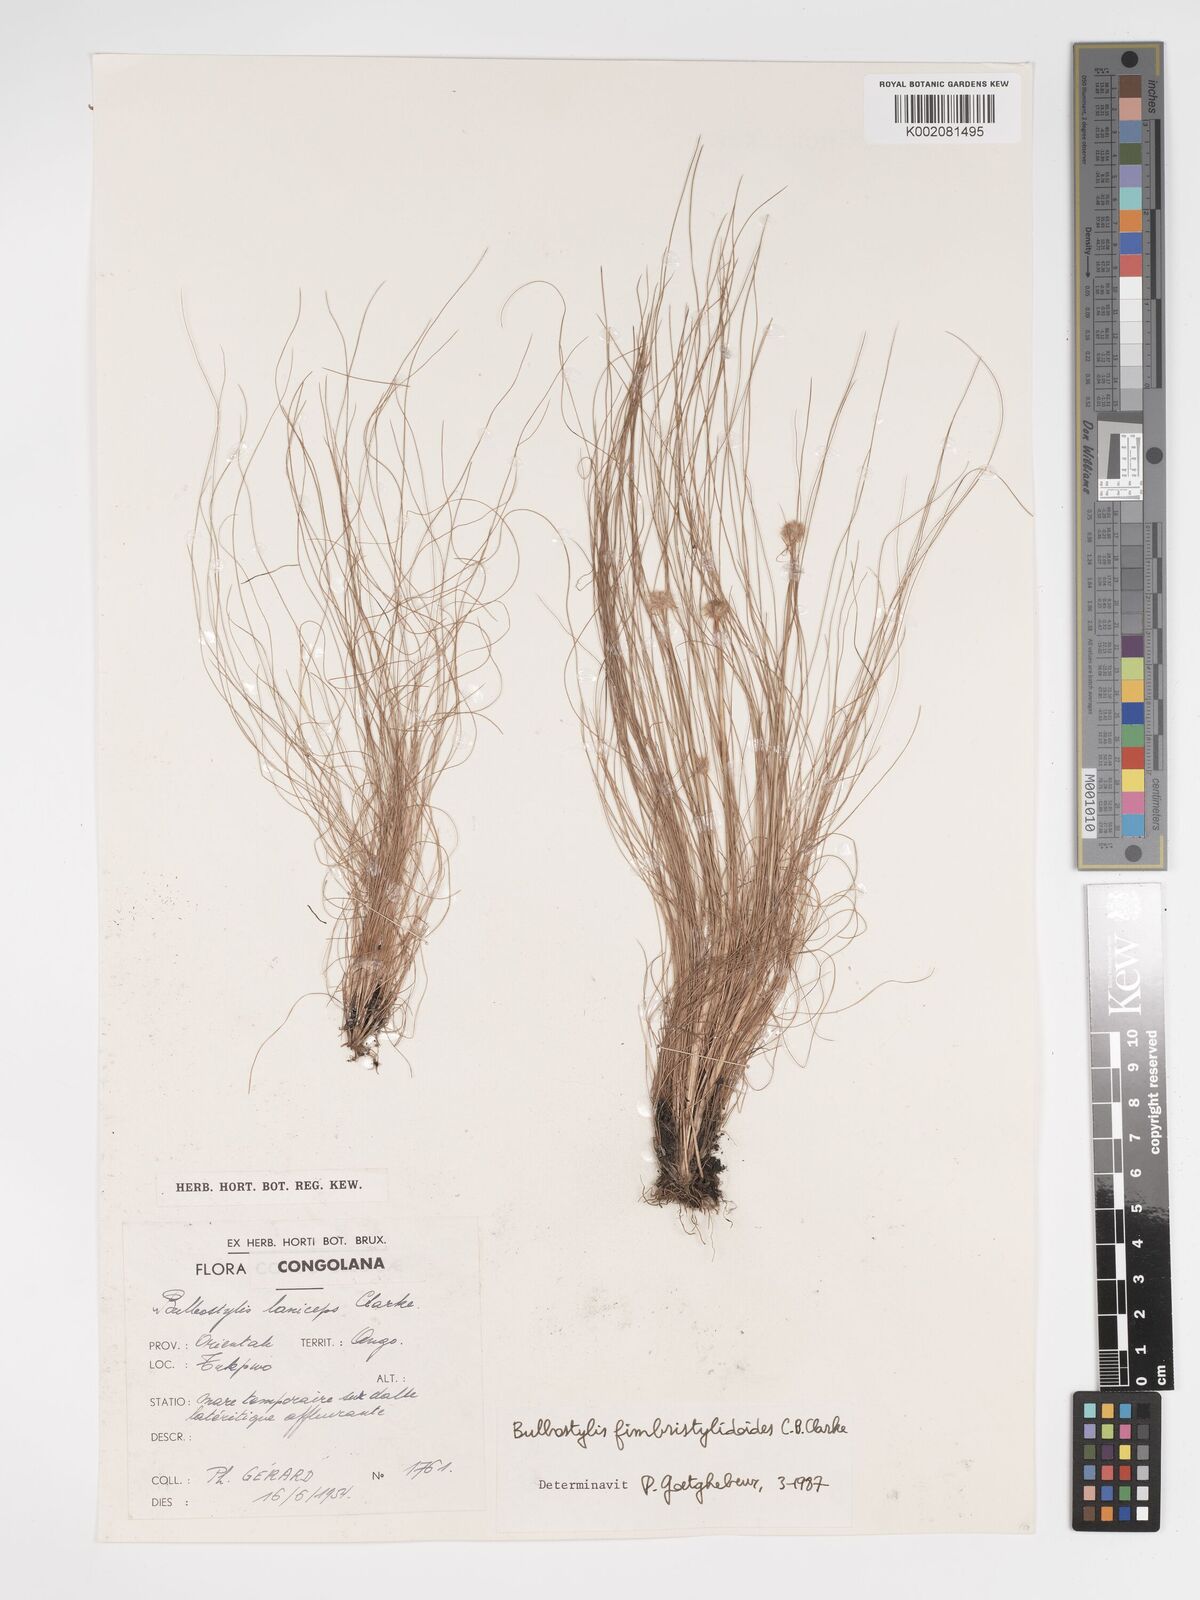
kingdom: Plantae
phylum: Tracheophyta
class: Liliopsida
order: Poales
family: Cyperaceae
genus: Bulbostylis
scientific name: Bulbostylis fimbristyloides
